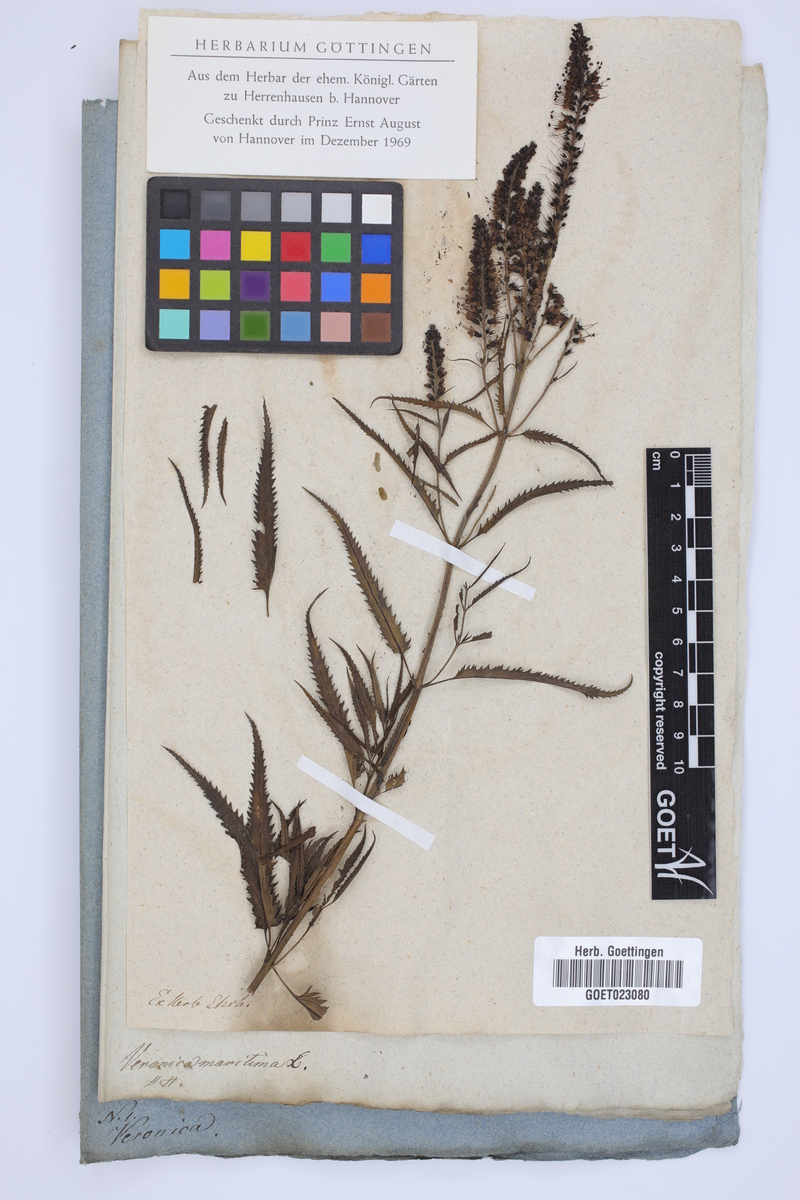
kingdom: Plantae
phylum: Tracheophyta
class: Magnoliopsida
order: Lamiales
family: Plantaginaceae
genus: Veronica
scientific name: Veronica longifolia
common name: Garden speedwell
